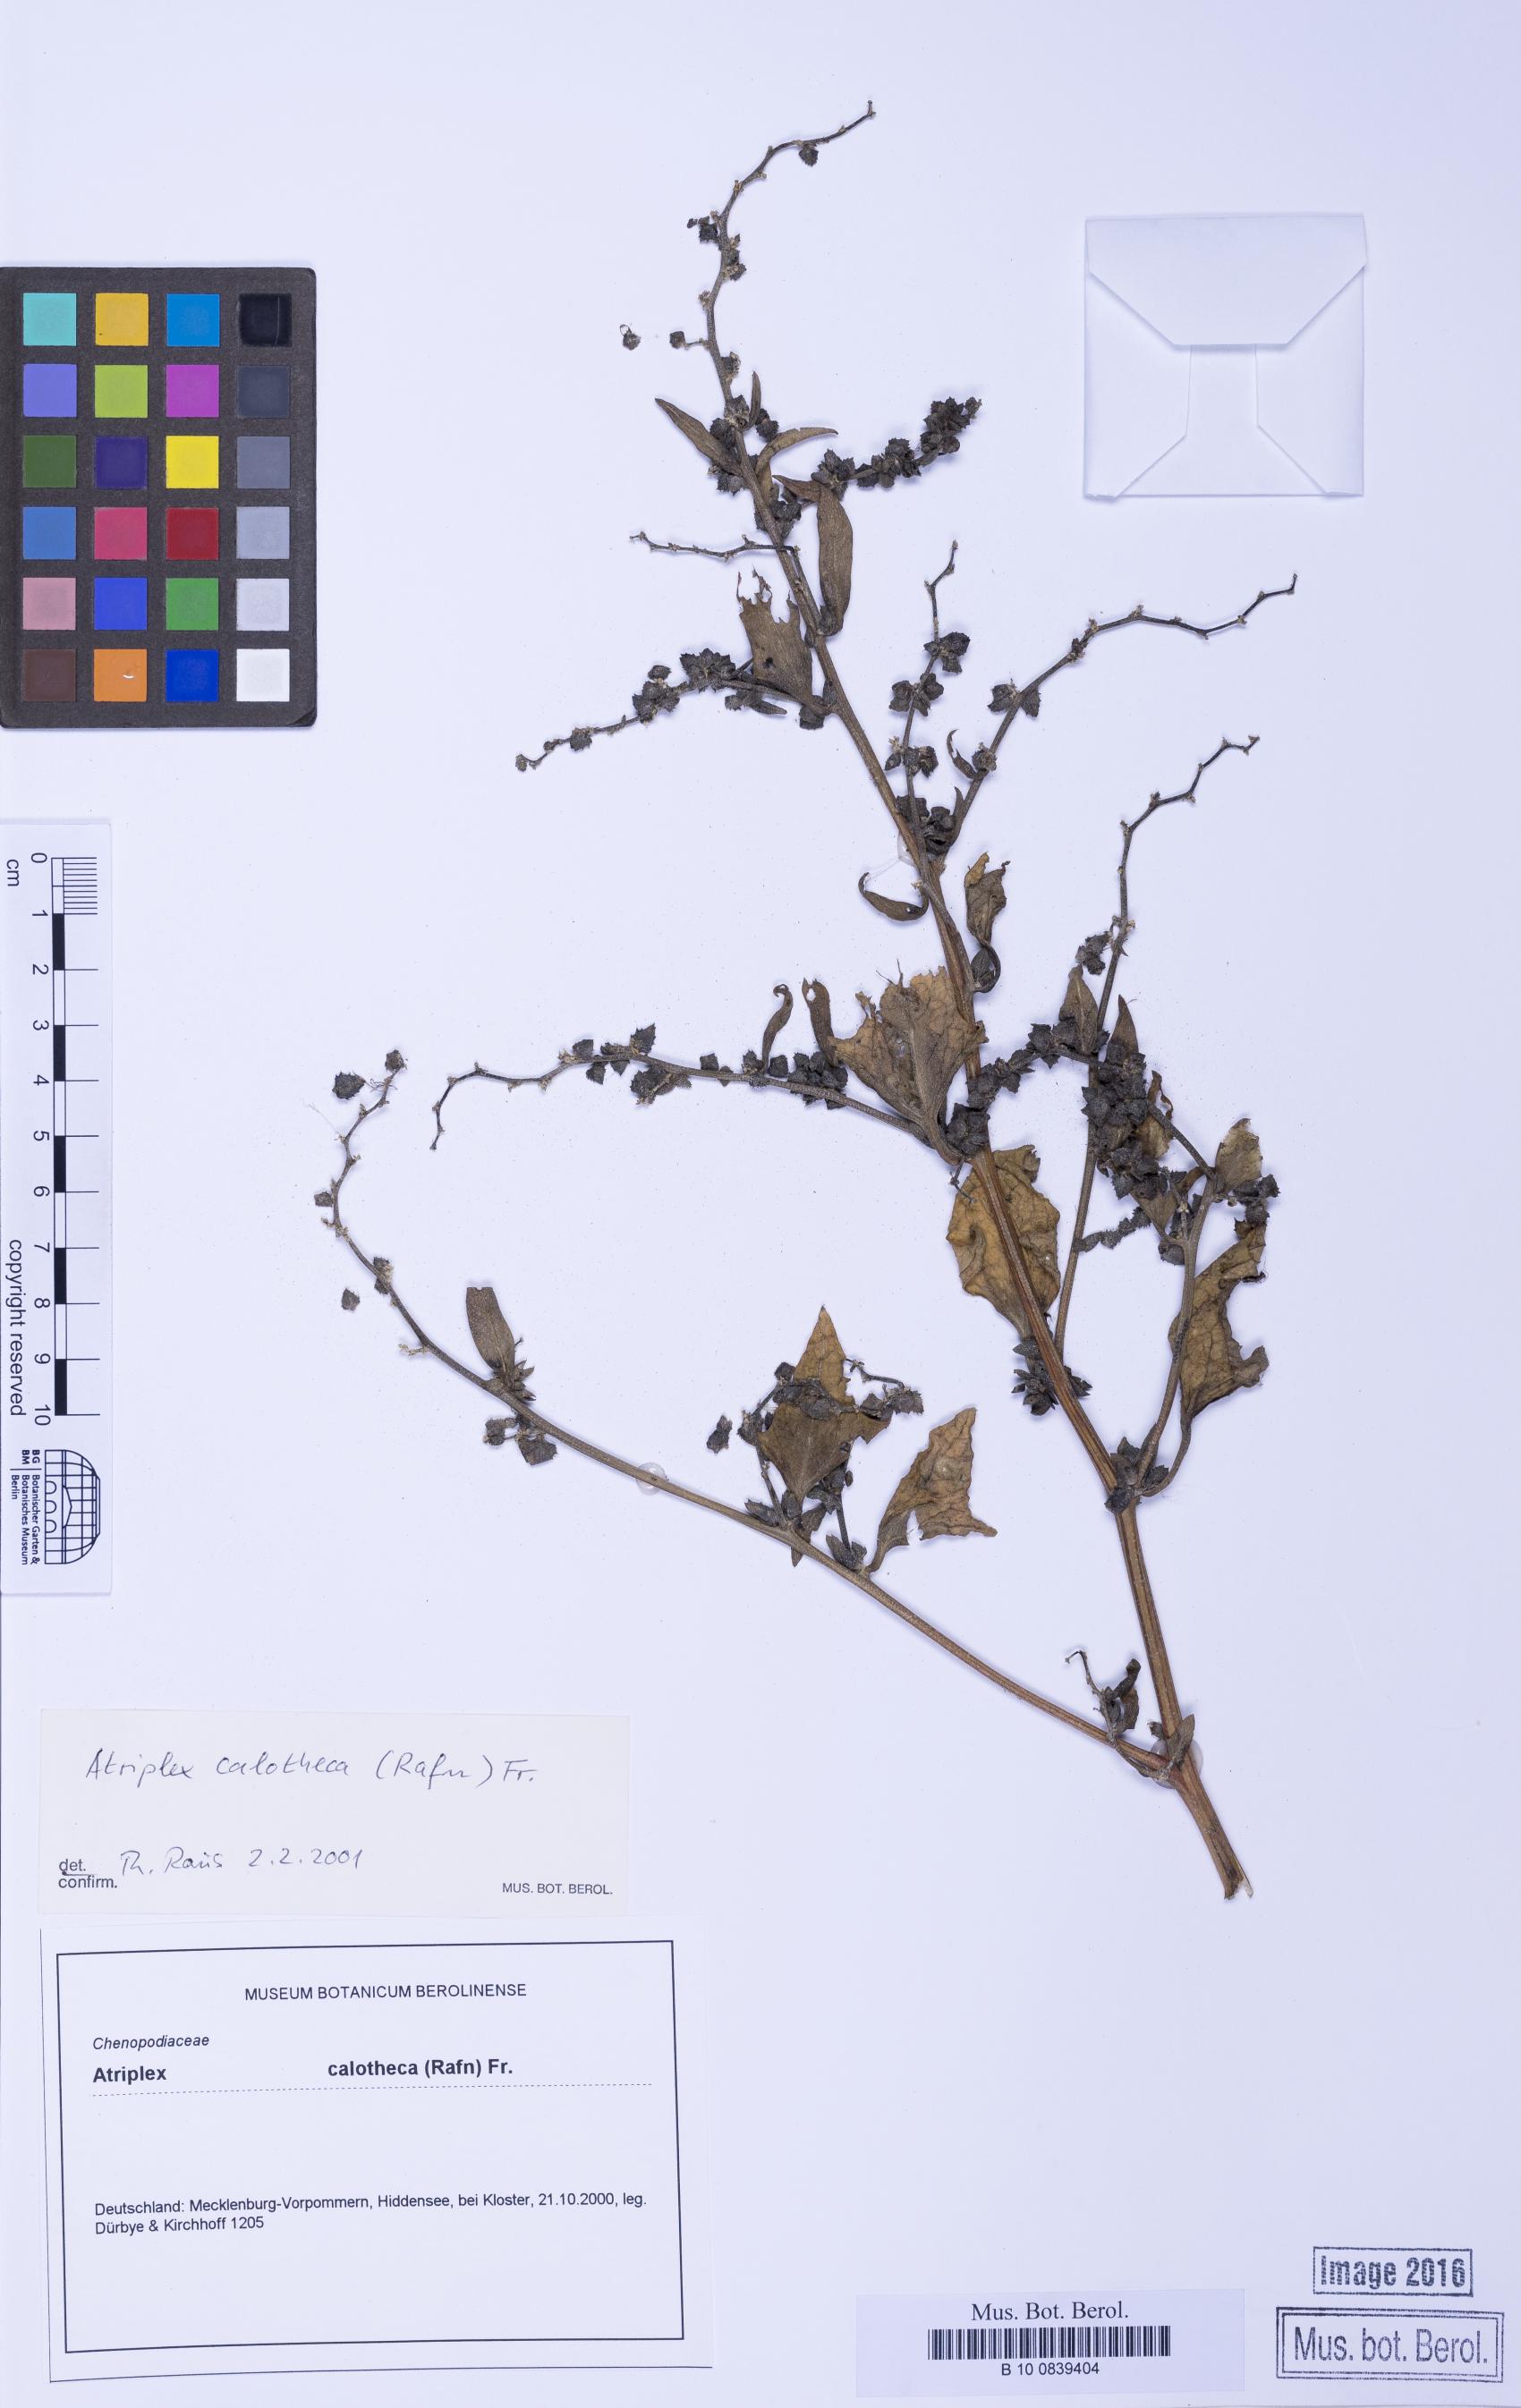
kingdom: Plantae
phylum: Tracheophyta
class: Magnoliopsida
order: Caryophyllales
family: Amaranthaceae
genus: Atriplex
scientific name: Atriplex calotheca
